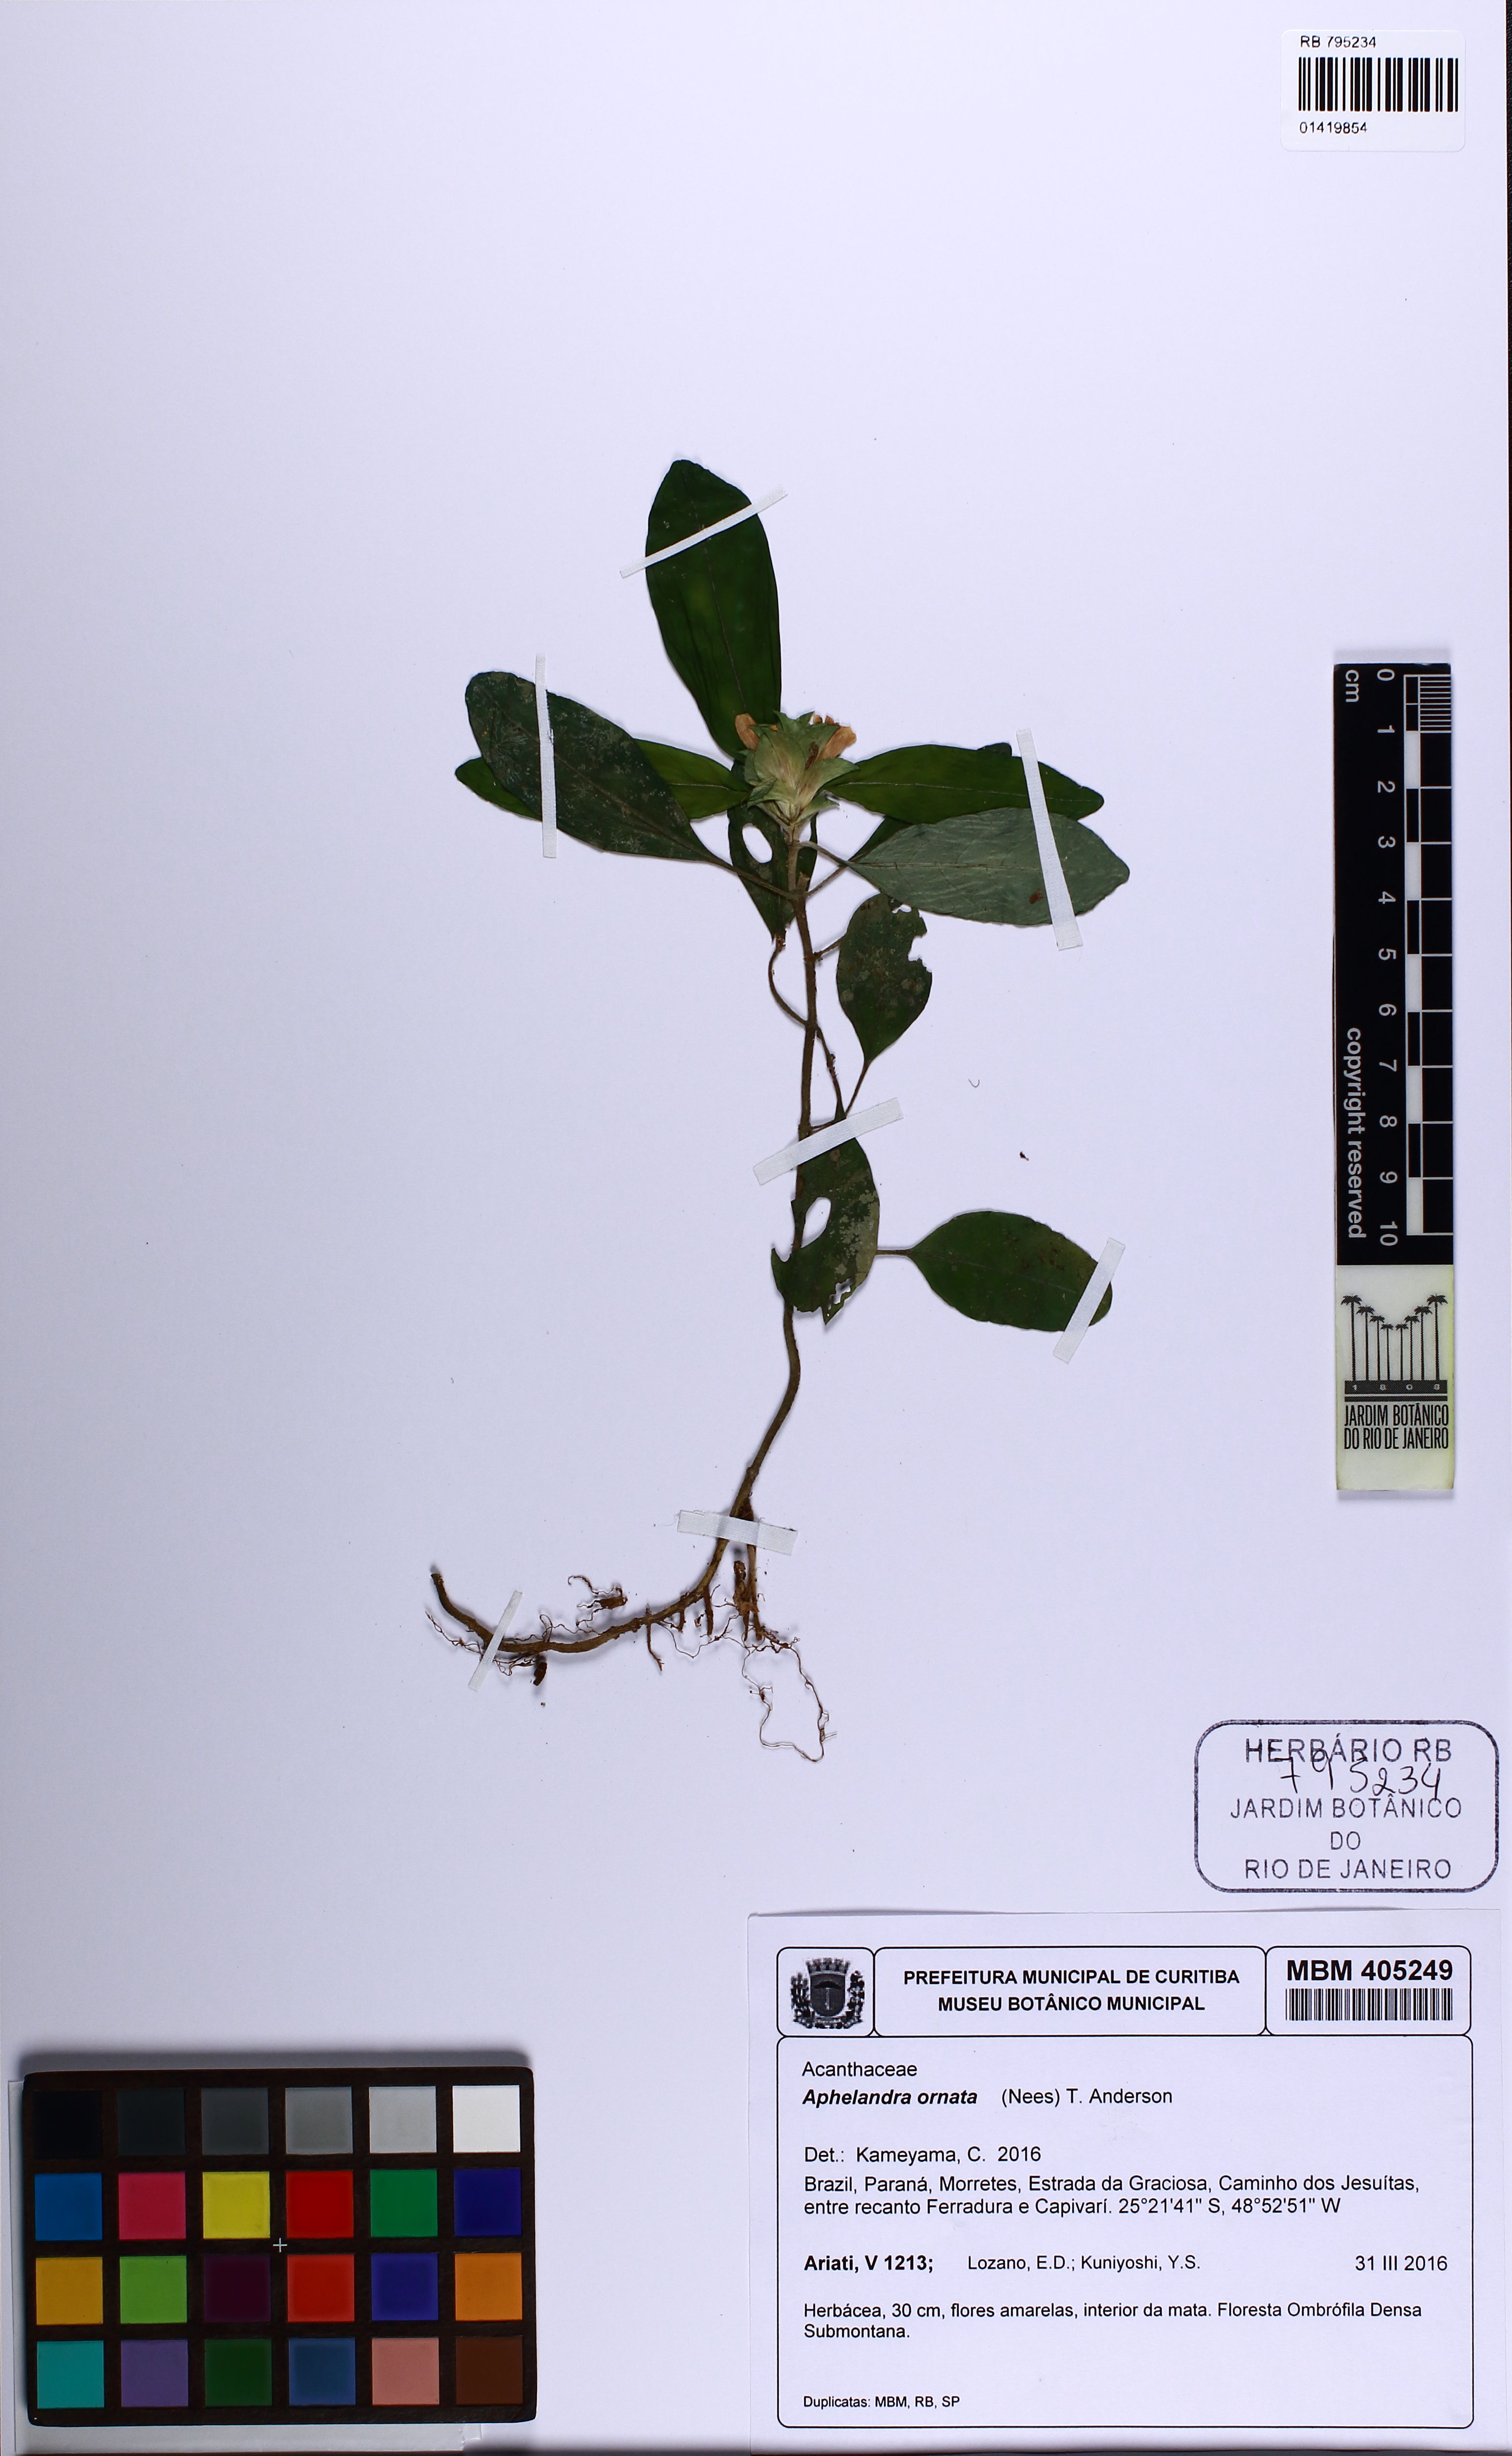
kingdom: Plantae
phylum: Tracheophyta
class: Magnoliopsida
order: Lamiales
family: Acanthaceae
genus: Aphelandra
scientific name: Aphelandra ornata
